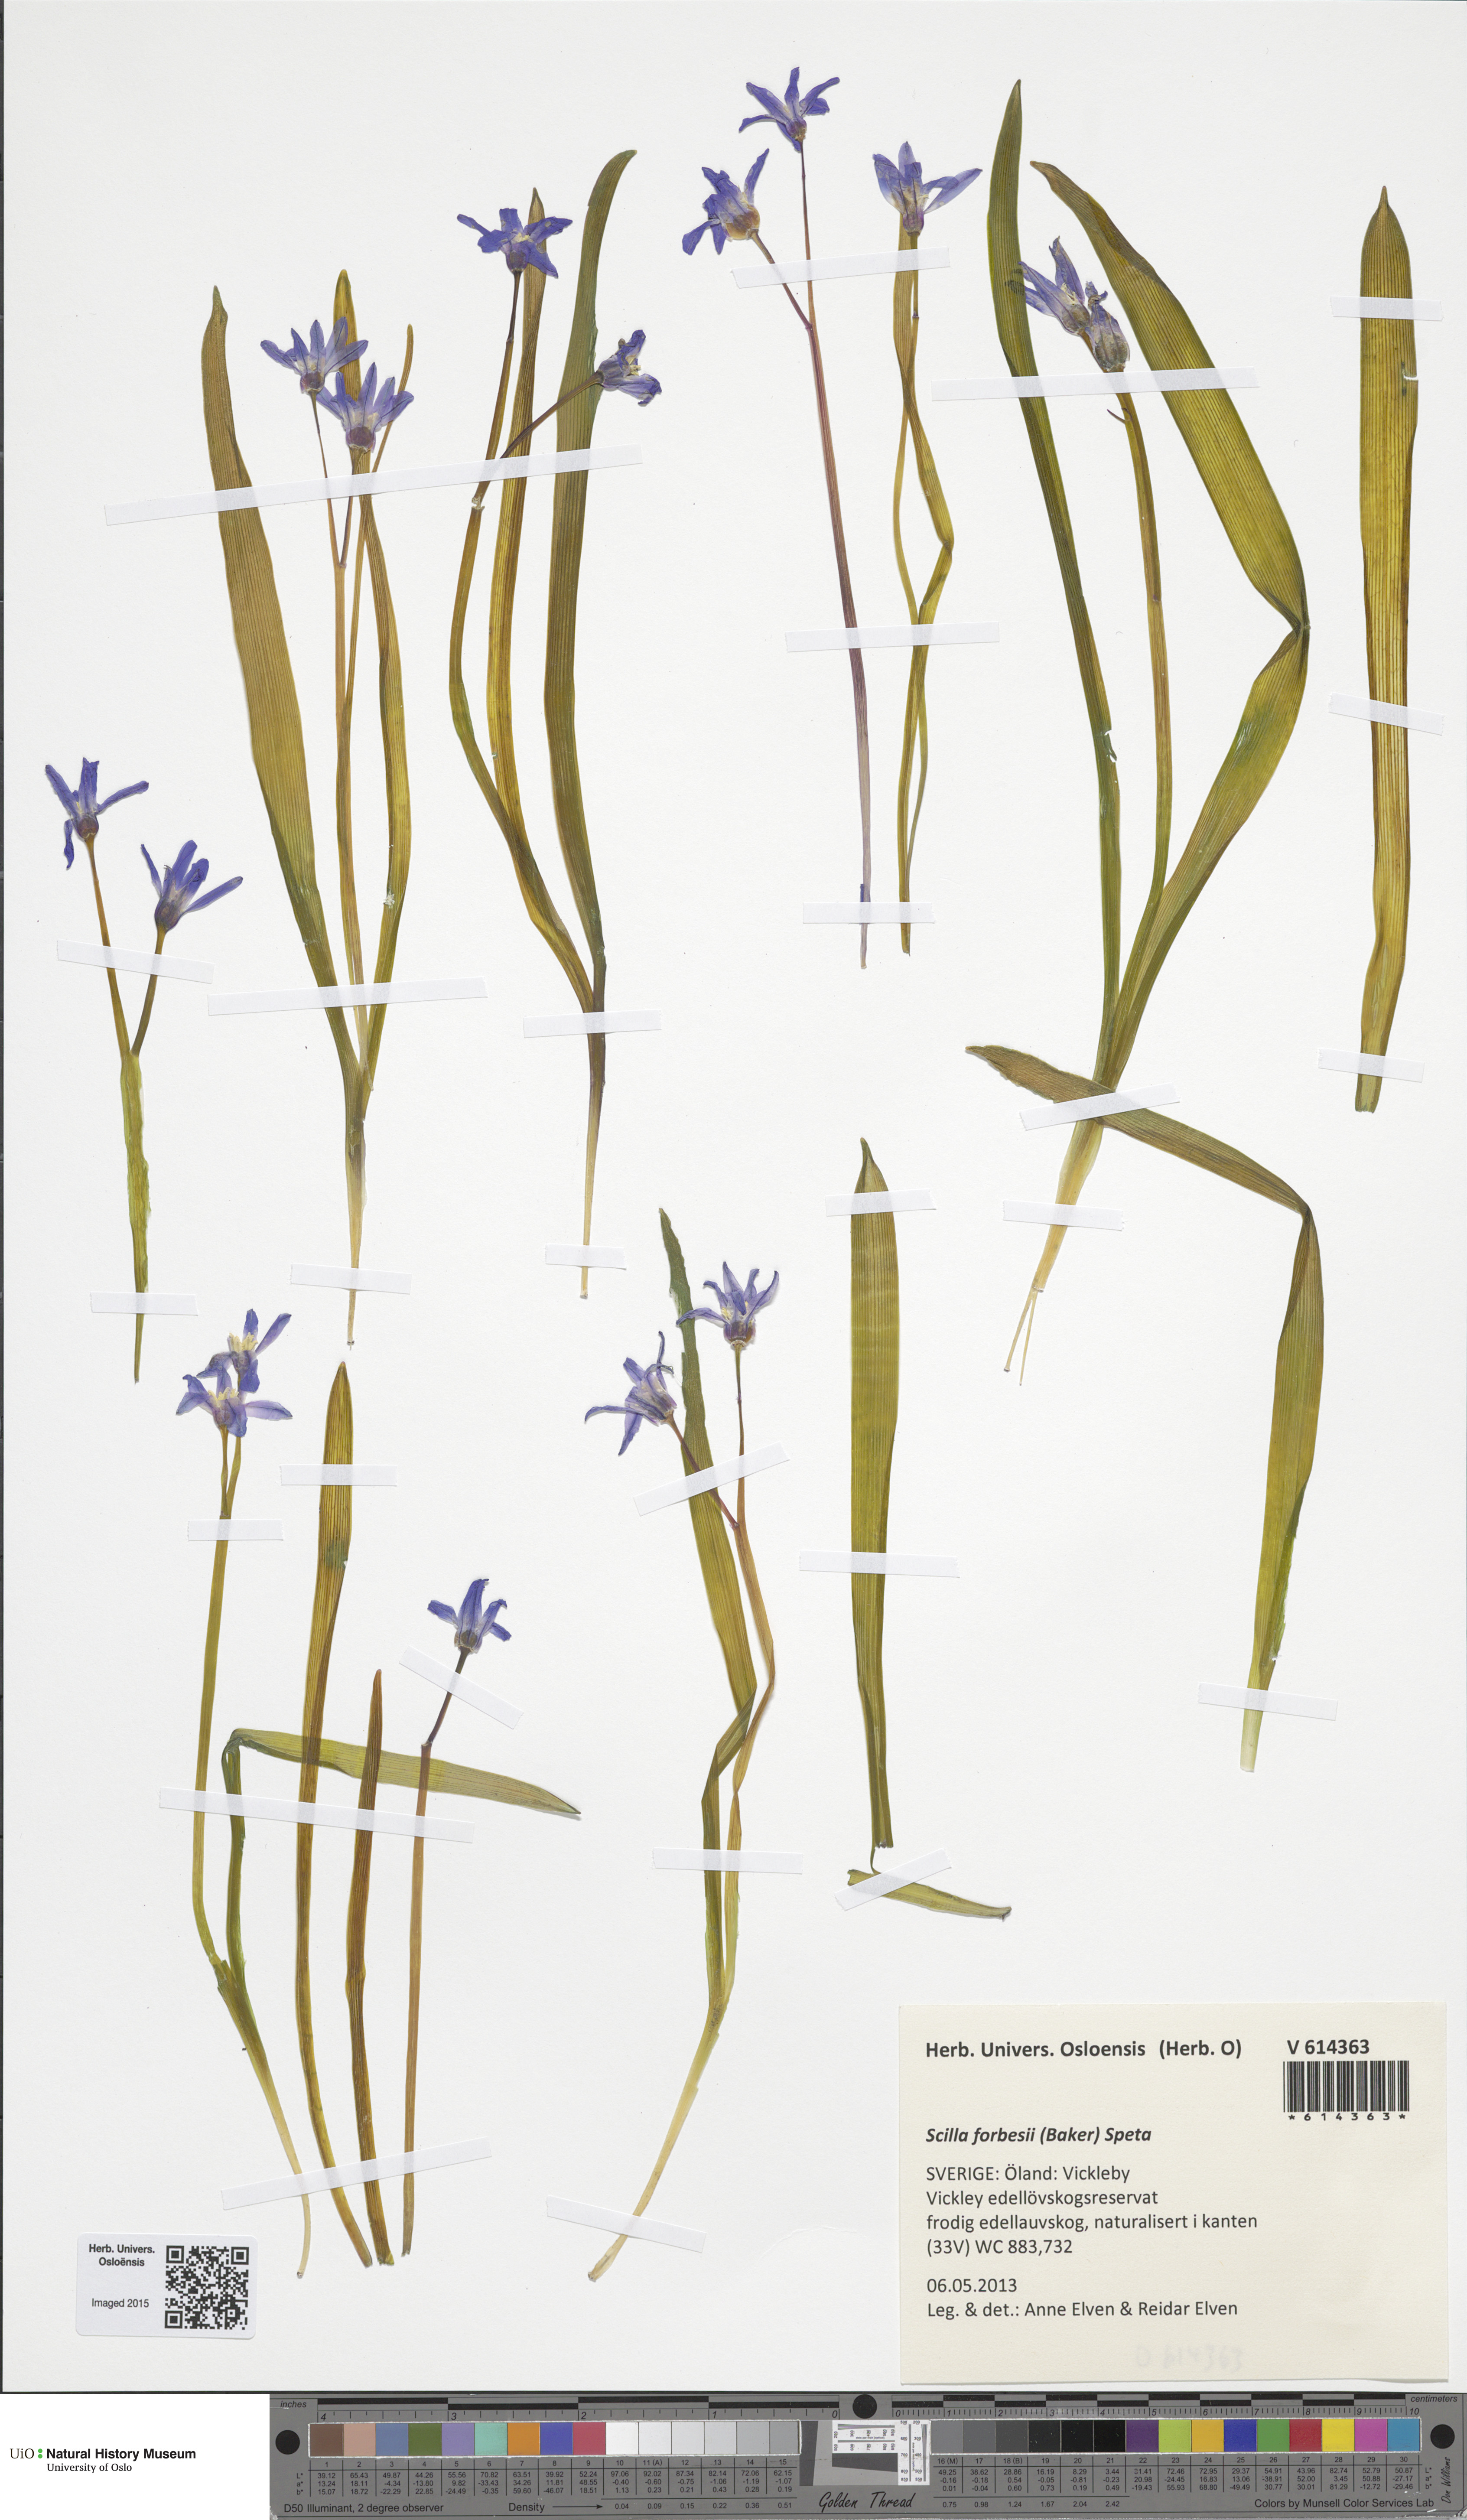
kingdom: Plantae
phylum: Tracheophyta
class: Liliopsida
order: Asparagales
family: Asparagaceae
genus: Scilla
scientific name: Scilla forbesii
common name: Glory-of-the-snow
